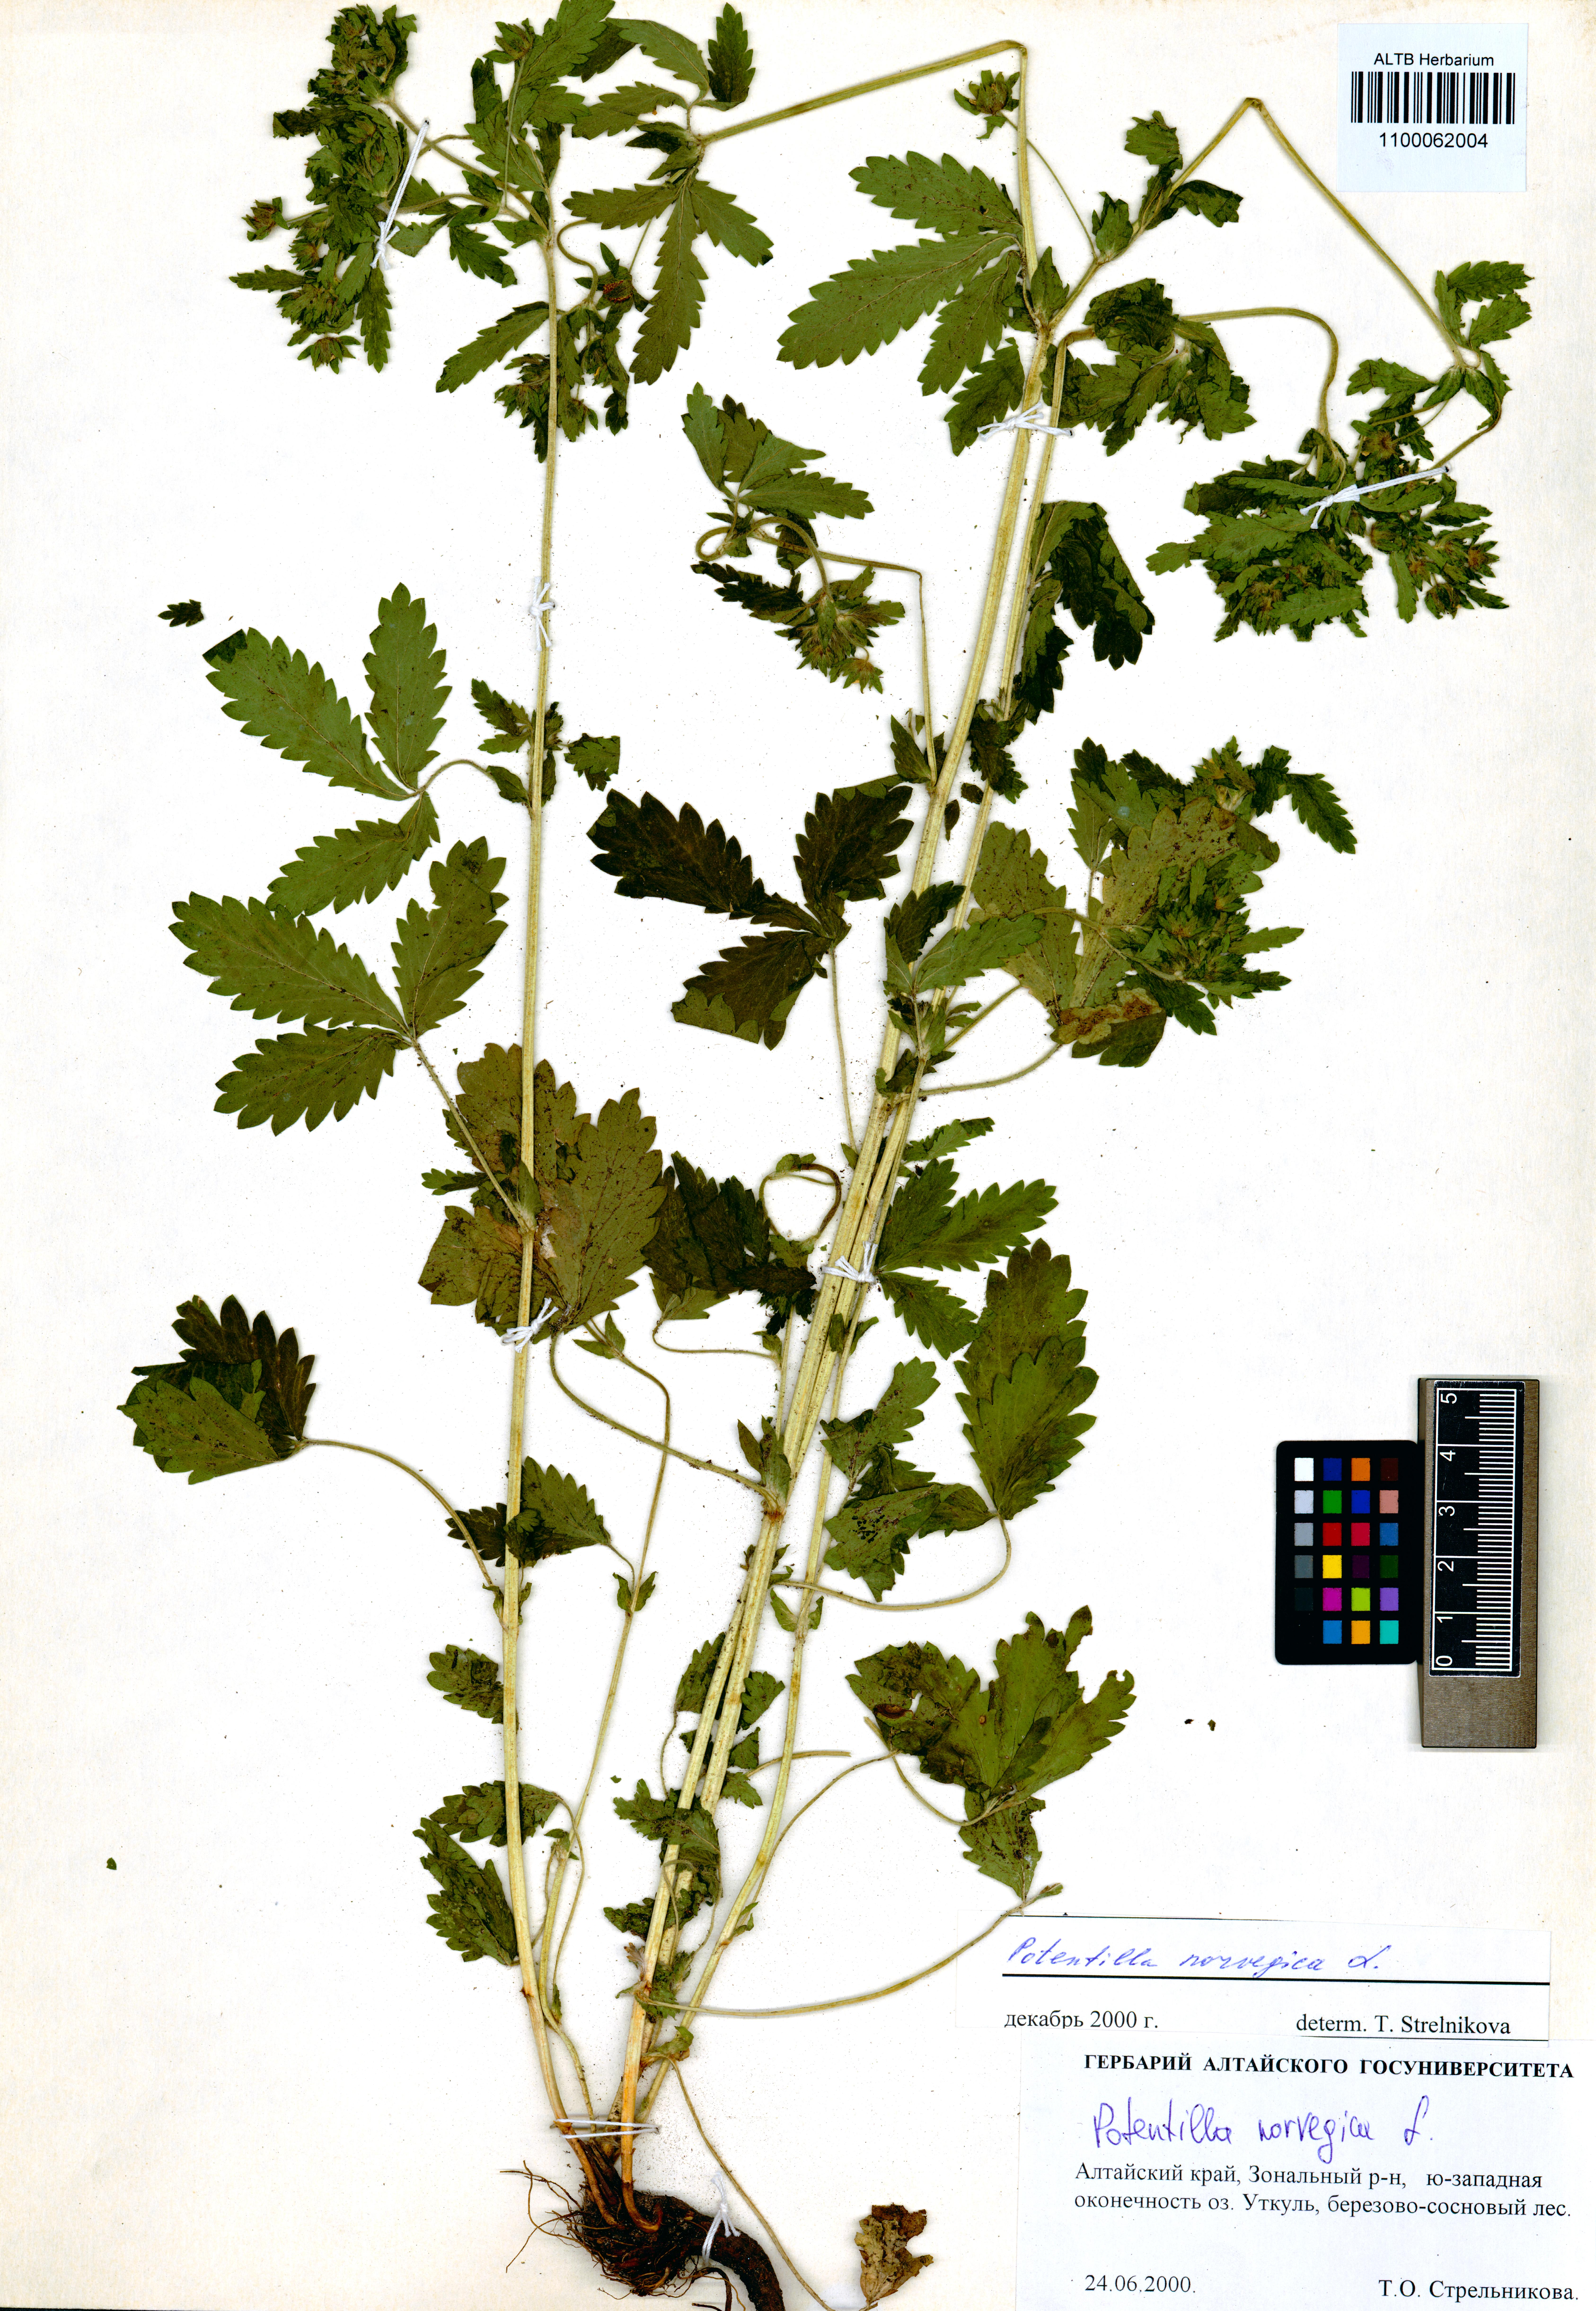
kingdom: Plantae
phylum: Tracheophyta
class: Magnoliopsida
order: Rosales
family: Rosaceae
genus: Potentilla
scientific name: Potentilla norvegica
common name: Ternate-leaved cinquefoil
